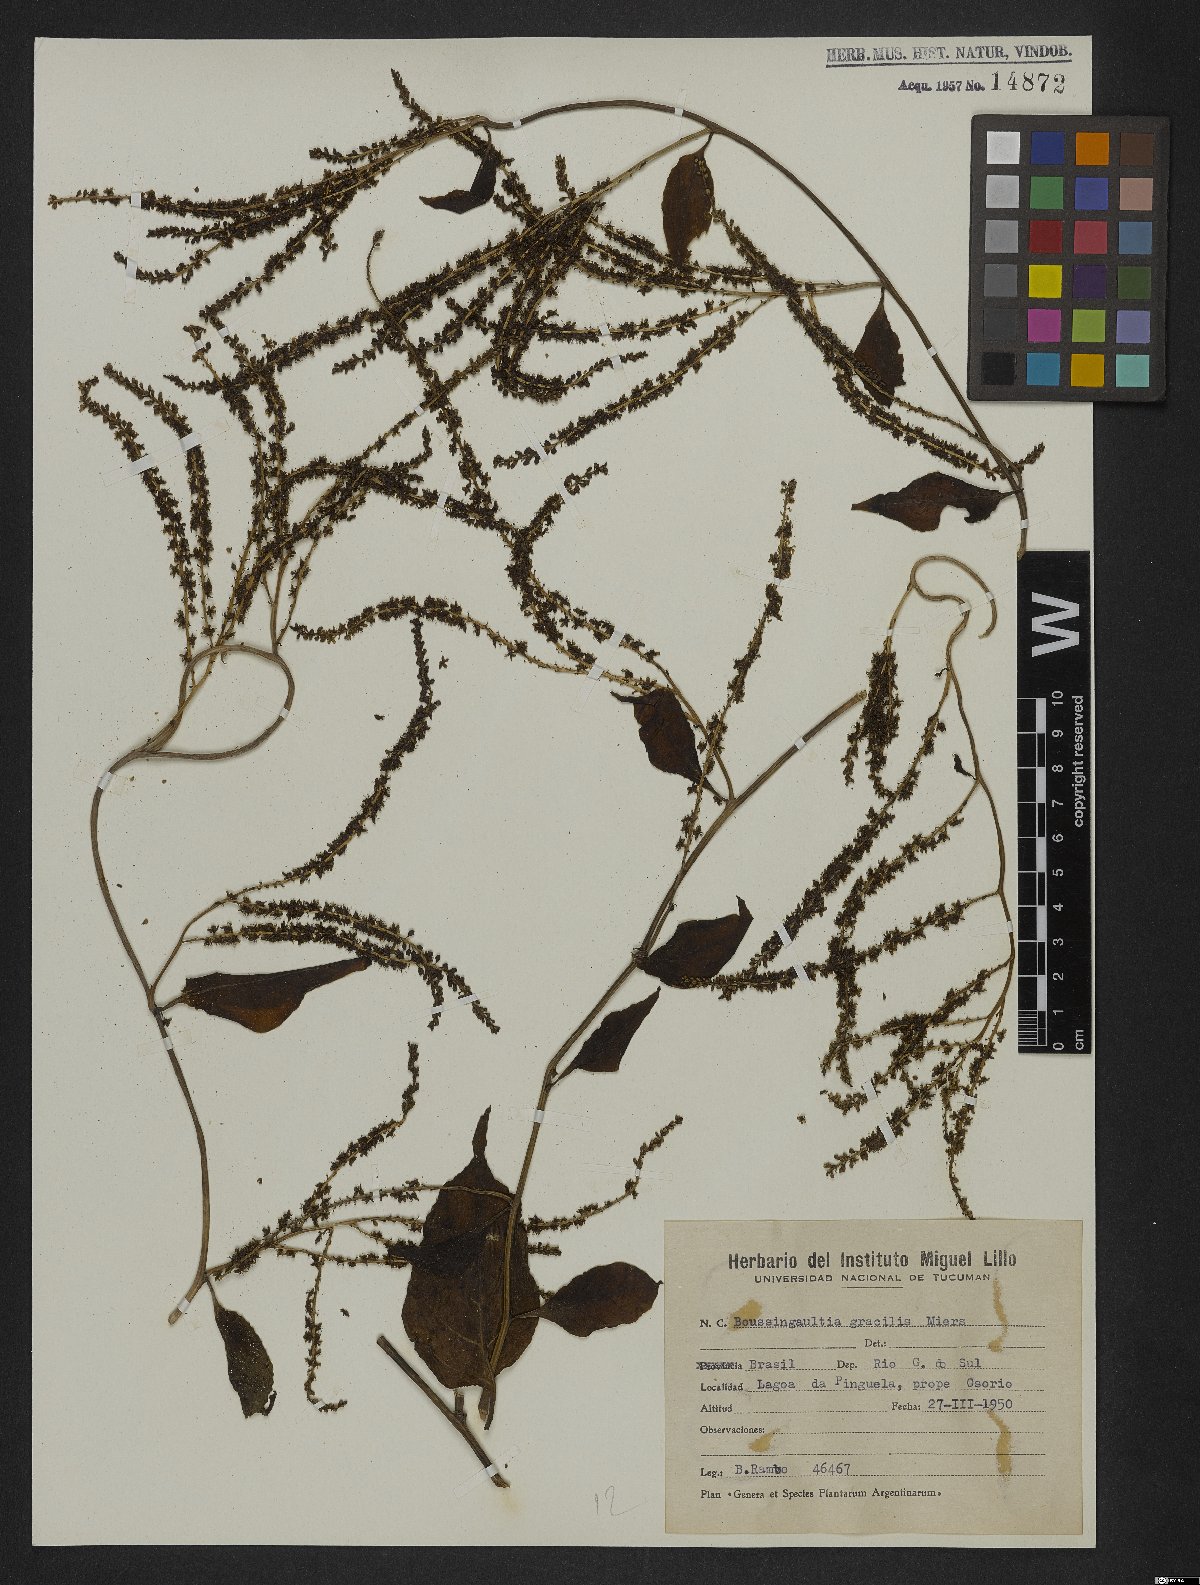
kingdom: Plantae
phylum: Tracheophyta
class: Magnoliopsida
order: Caryophyllales
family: Basellaceae
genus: Anredera
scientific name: Anredera cordifolia
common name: Heartleaf madeiravine
